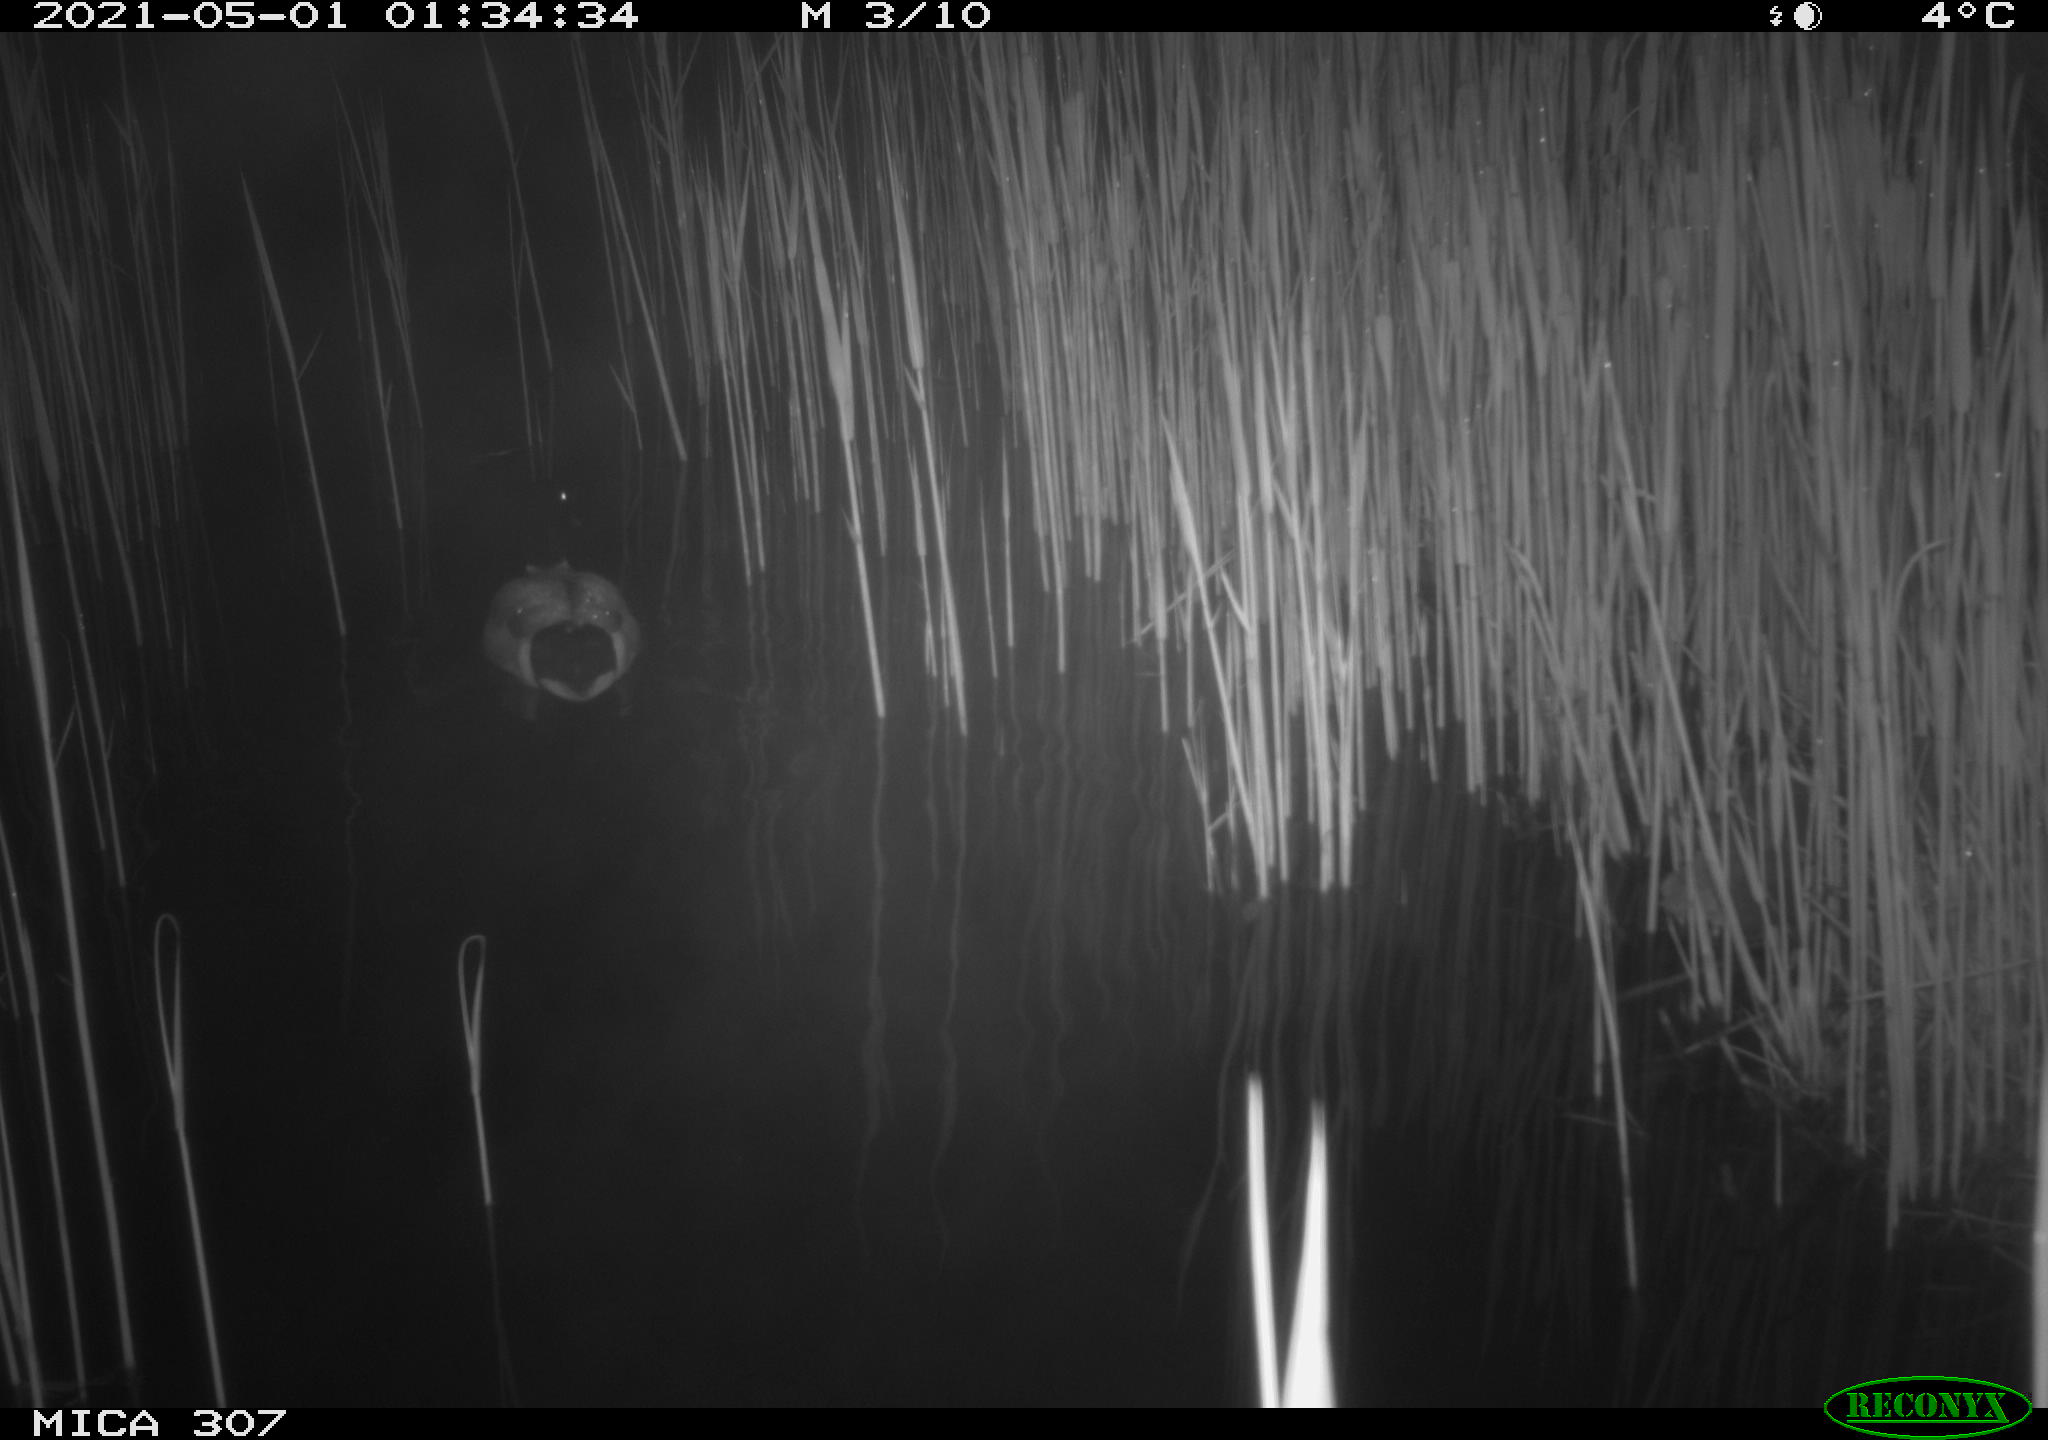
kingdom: Animalia
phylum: Chordata
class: Aves
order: Anseriformes
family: Anatidae
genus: Anas
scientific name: Anas platyrhynchos
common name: Mallard
